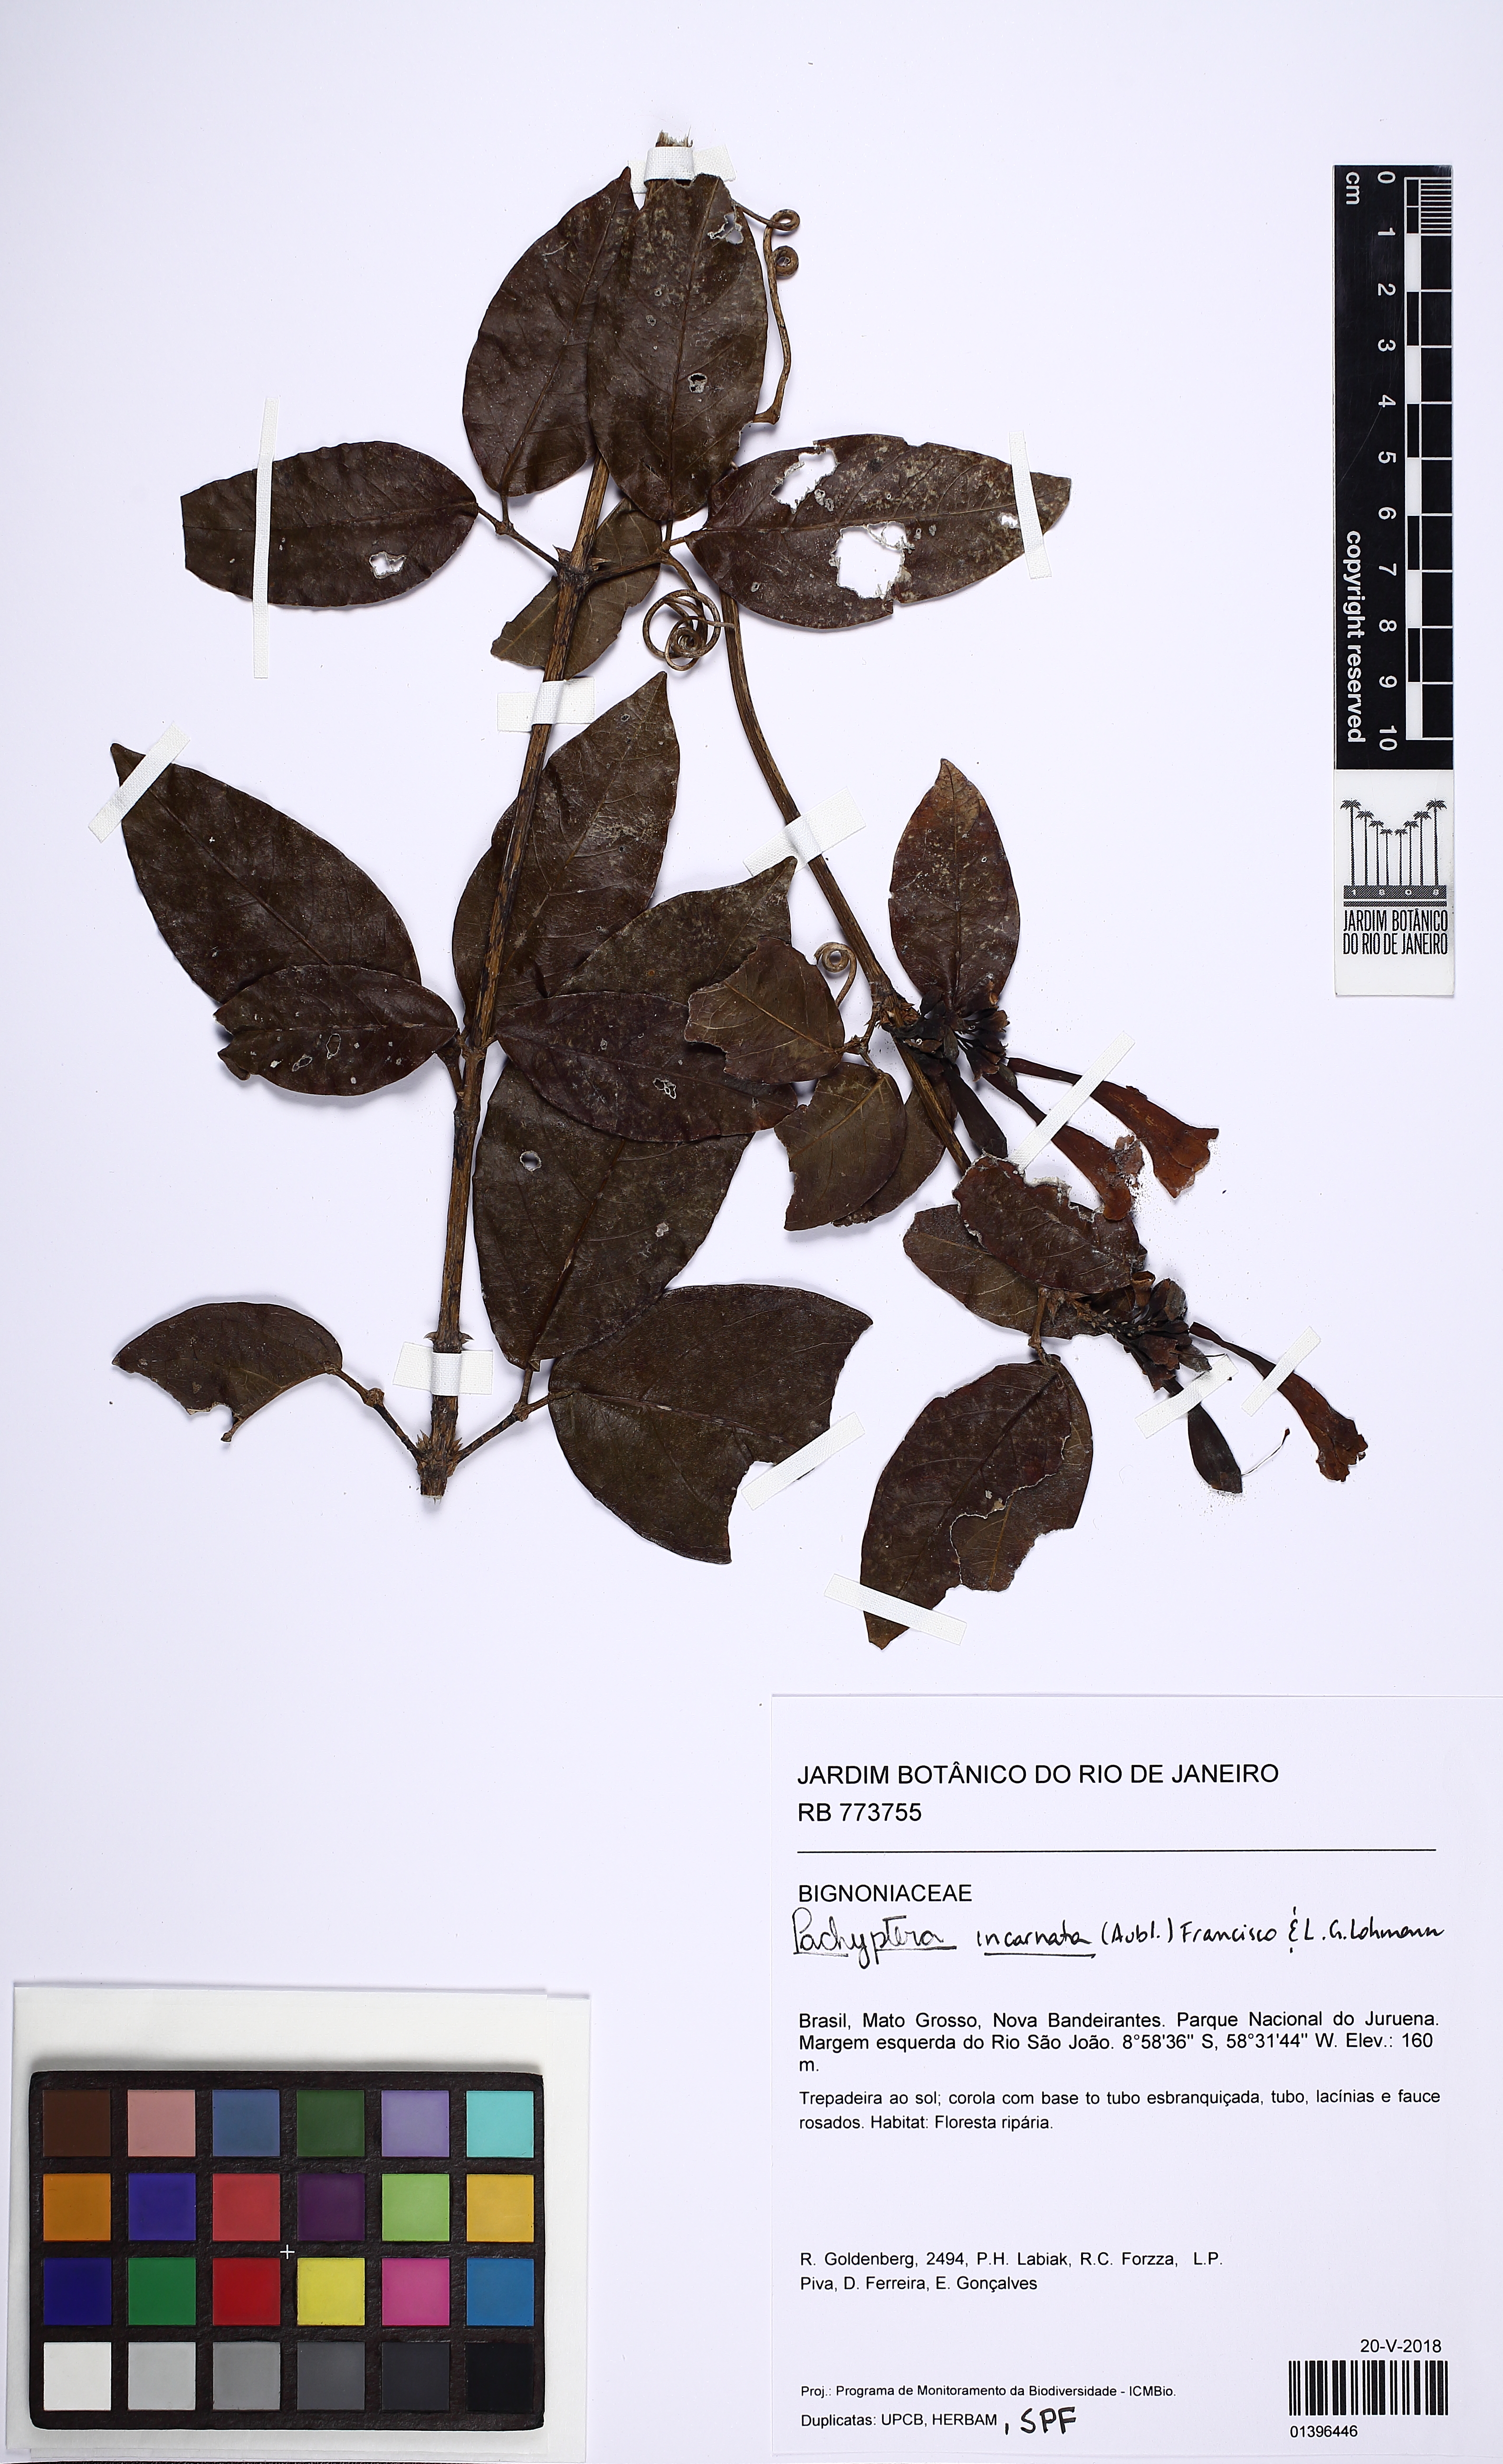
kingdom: Plantae
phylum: Tracheophyta
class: Magnoliopsida
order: Lamiales
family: Bignoniaceae
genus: Pachyptera
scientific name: Pachyptera incarnata
